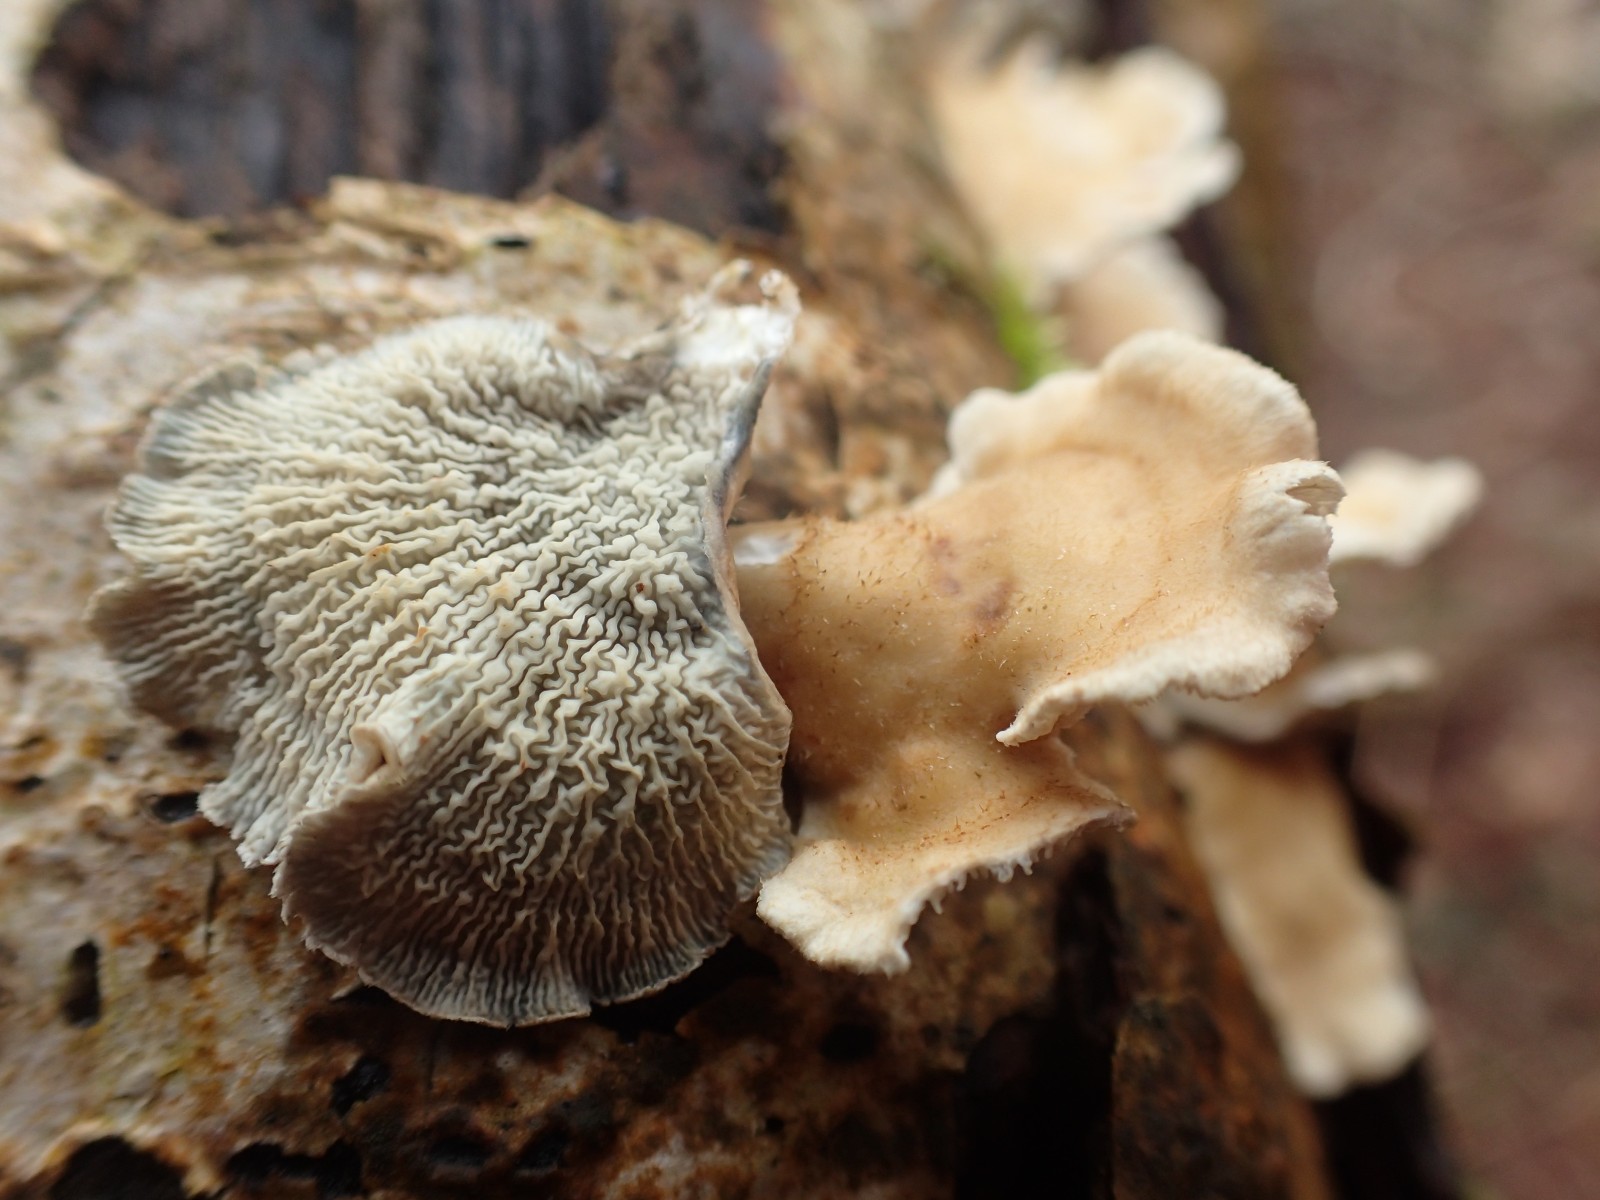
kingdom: Fungi
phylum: Basidiomycota
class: Agaricomycetes
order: Amylocorticiales
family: Amylocorticiaceae
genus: Plicaturopsis
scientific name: Plicaturopsis crispa
